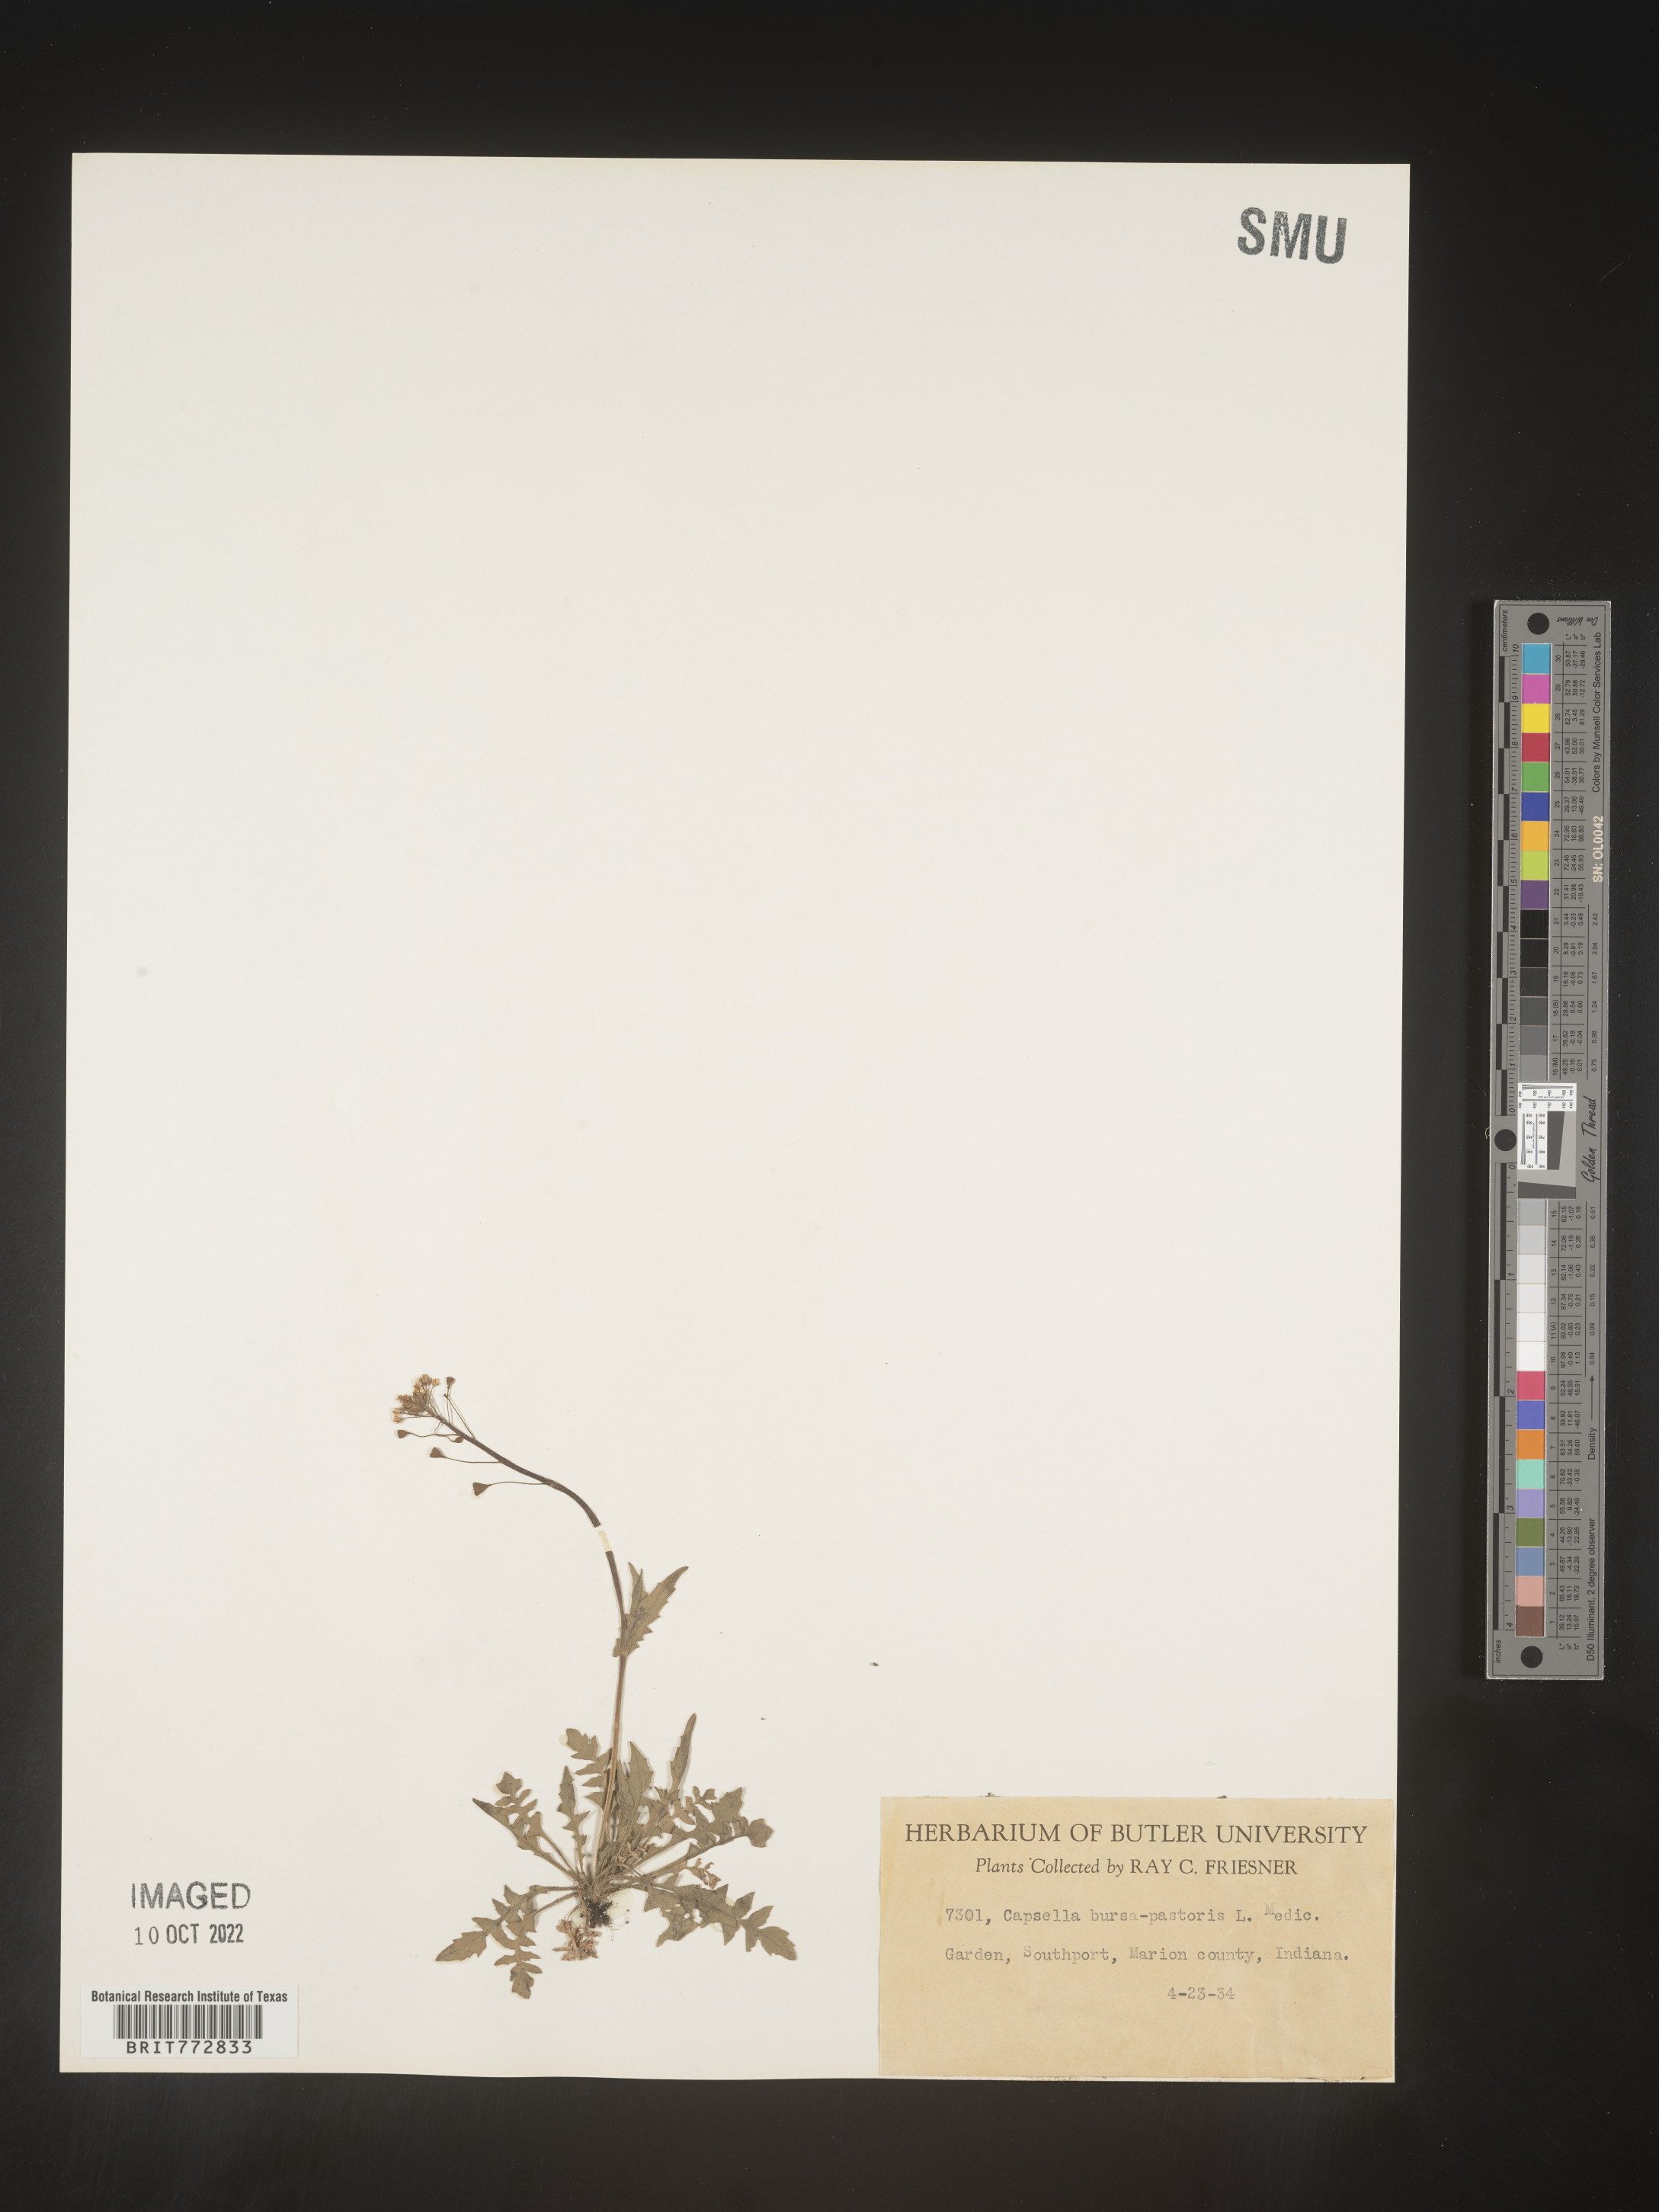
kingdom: Plantae
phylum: Tracheophyta
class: Magnoliopsida
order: Brassicales
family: Brassicaceae
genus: Capsella
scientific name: Capsella bursa-pastoris
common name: Shepherd's purse
